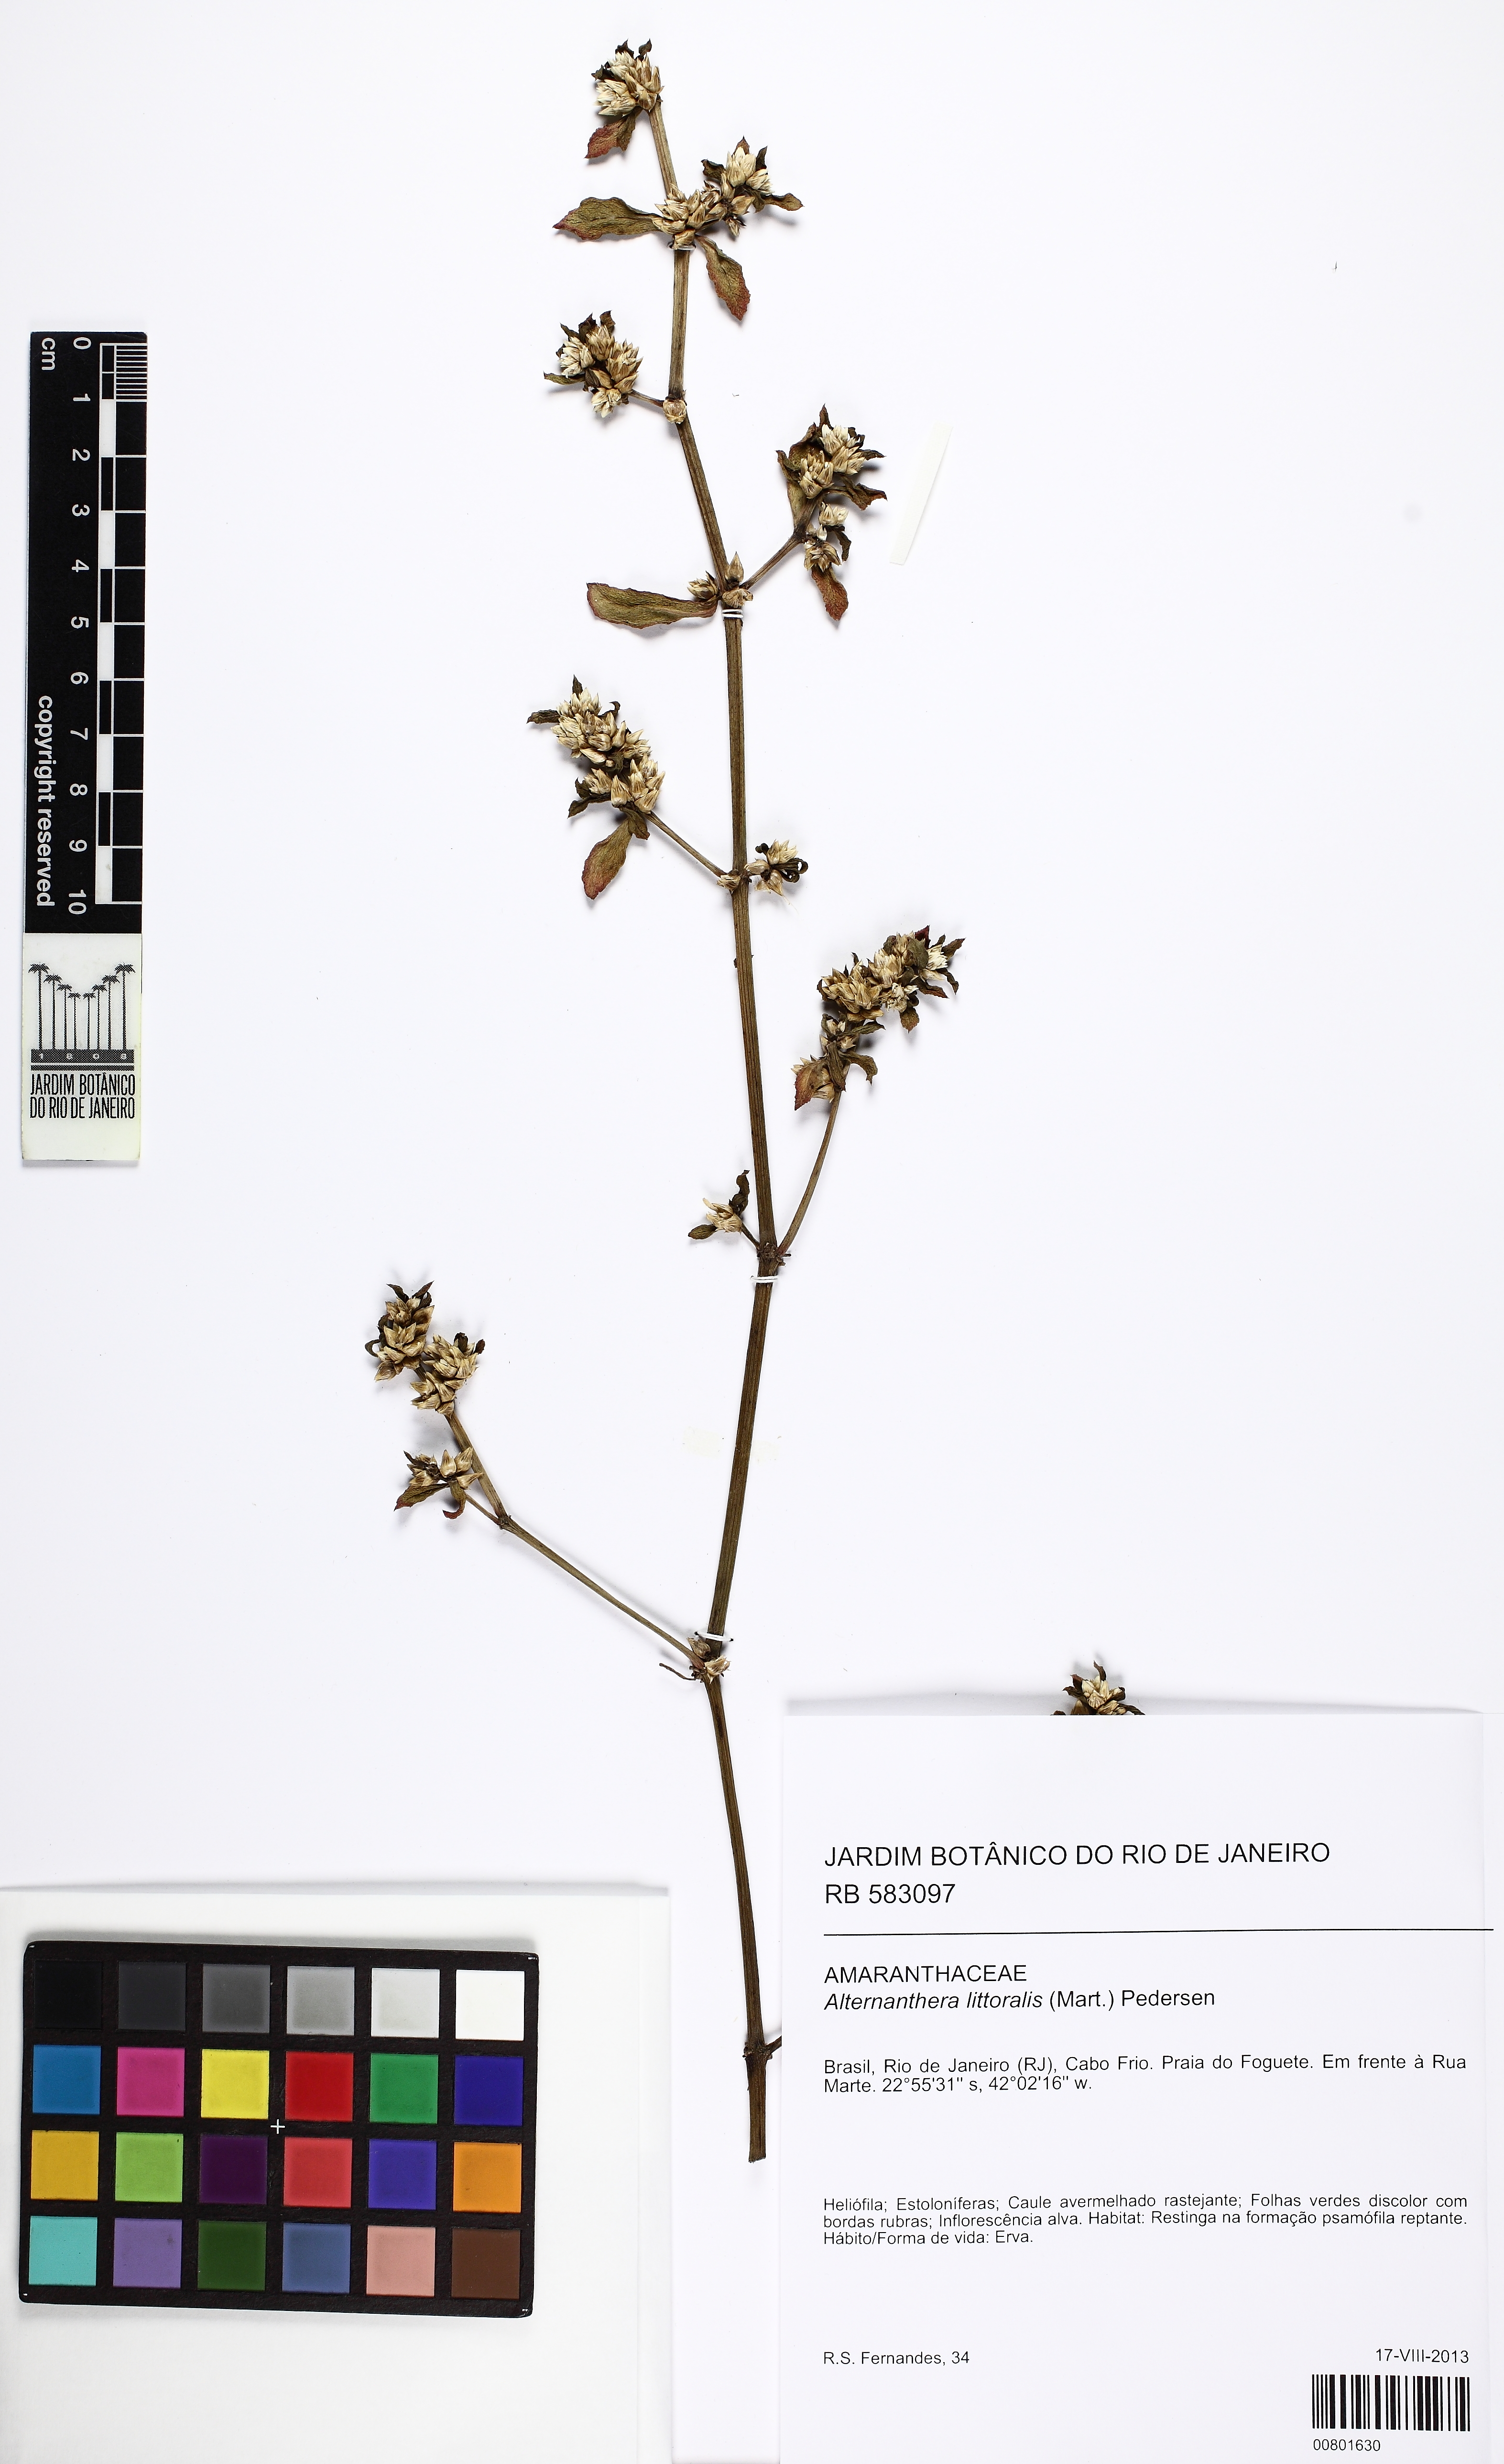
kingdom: Plantae
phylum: Tracheophyta
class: Magnoliopsida
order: Caryophyllales
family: Amaranthaceae
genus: Alternanthera
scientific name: Alternanthera littoralis
